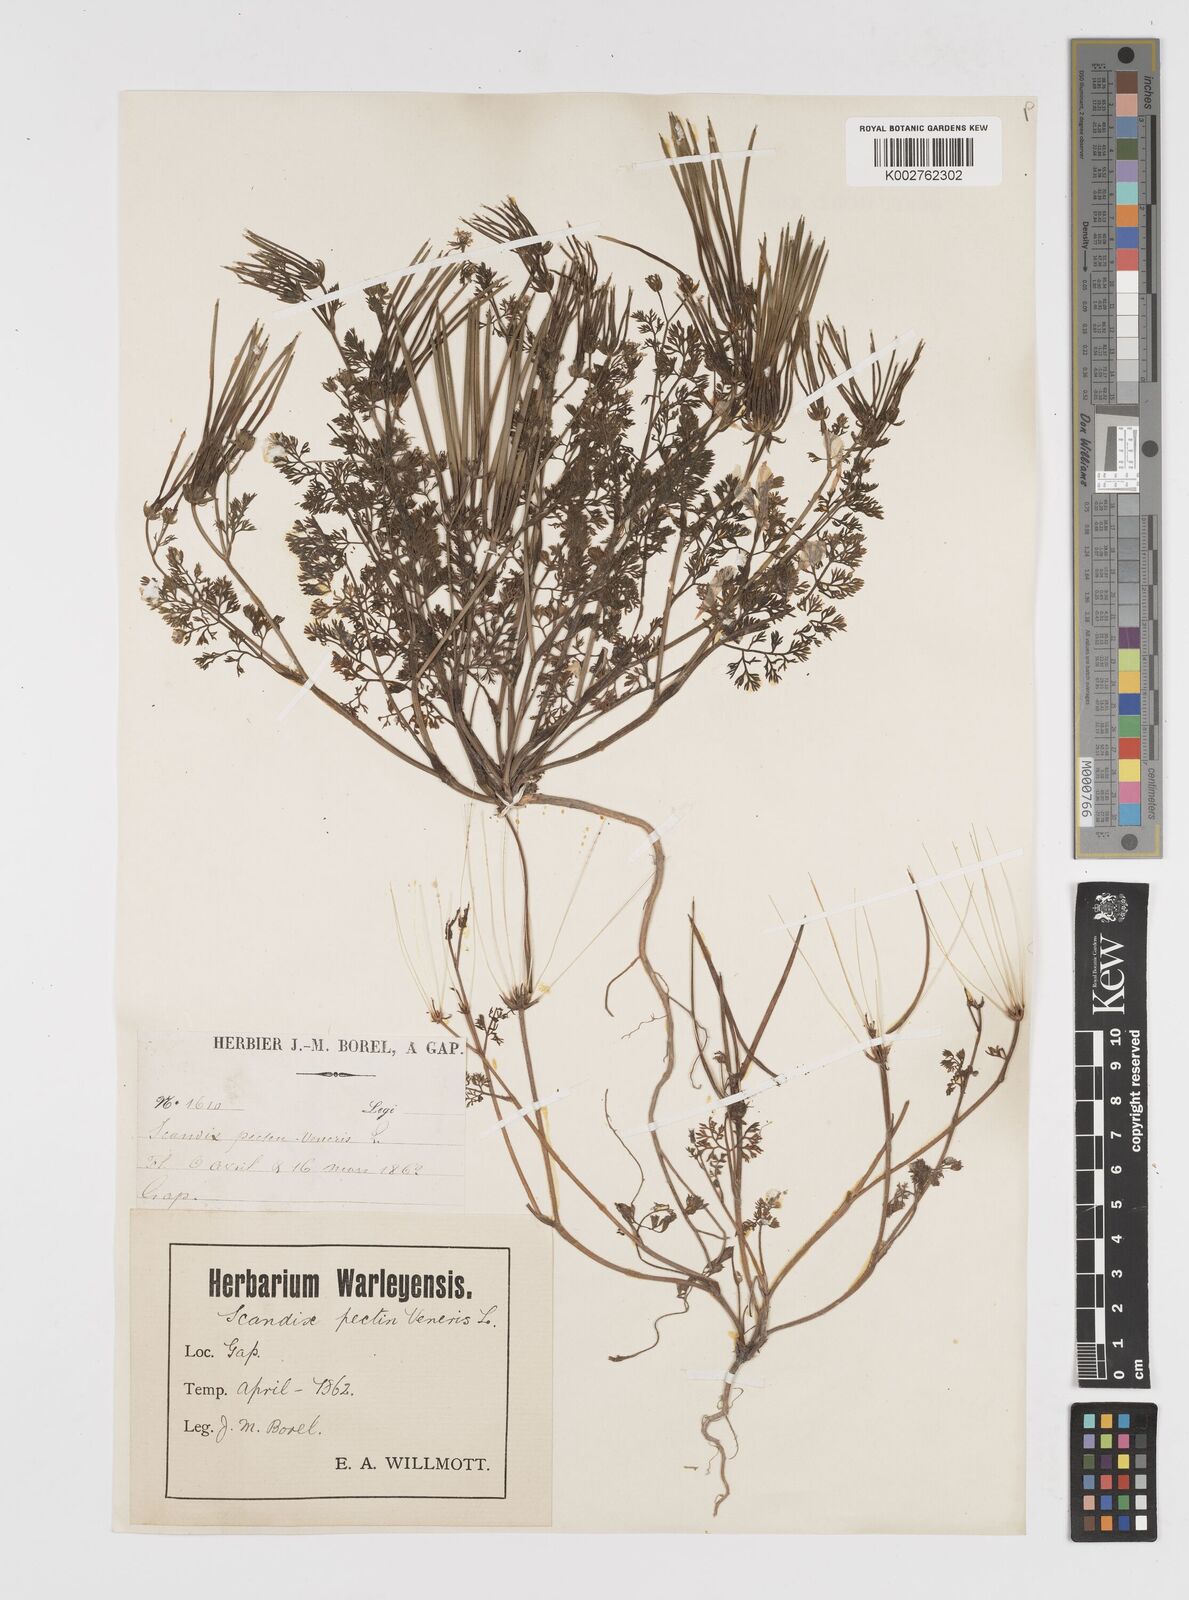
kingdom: Plantae
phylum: Tracheophyta
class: Magnoliopsida
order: Apiales
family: Apiaceae
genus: Scandix
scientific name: Scandix pecten-veneris
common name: Shepherd's-needle
